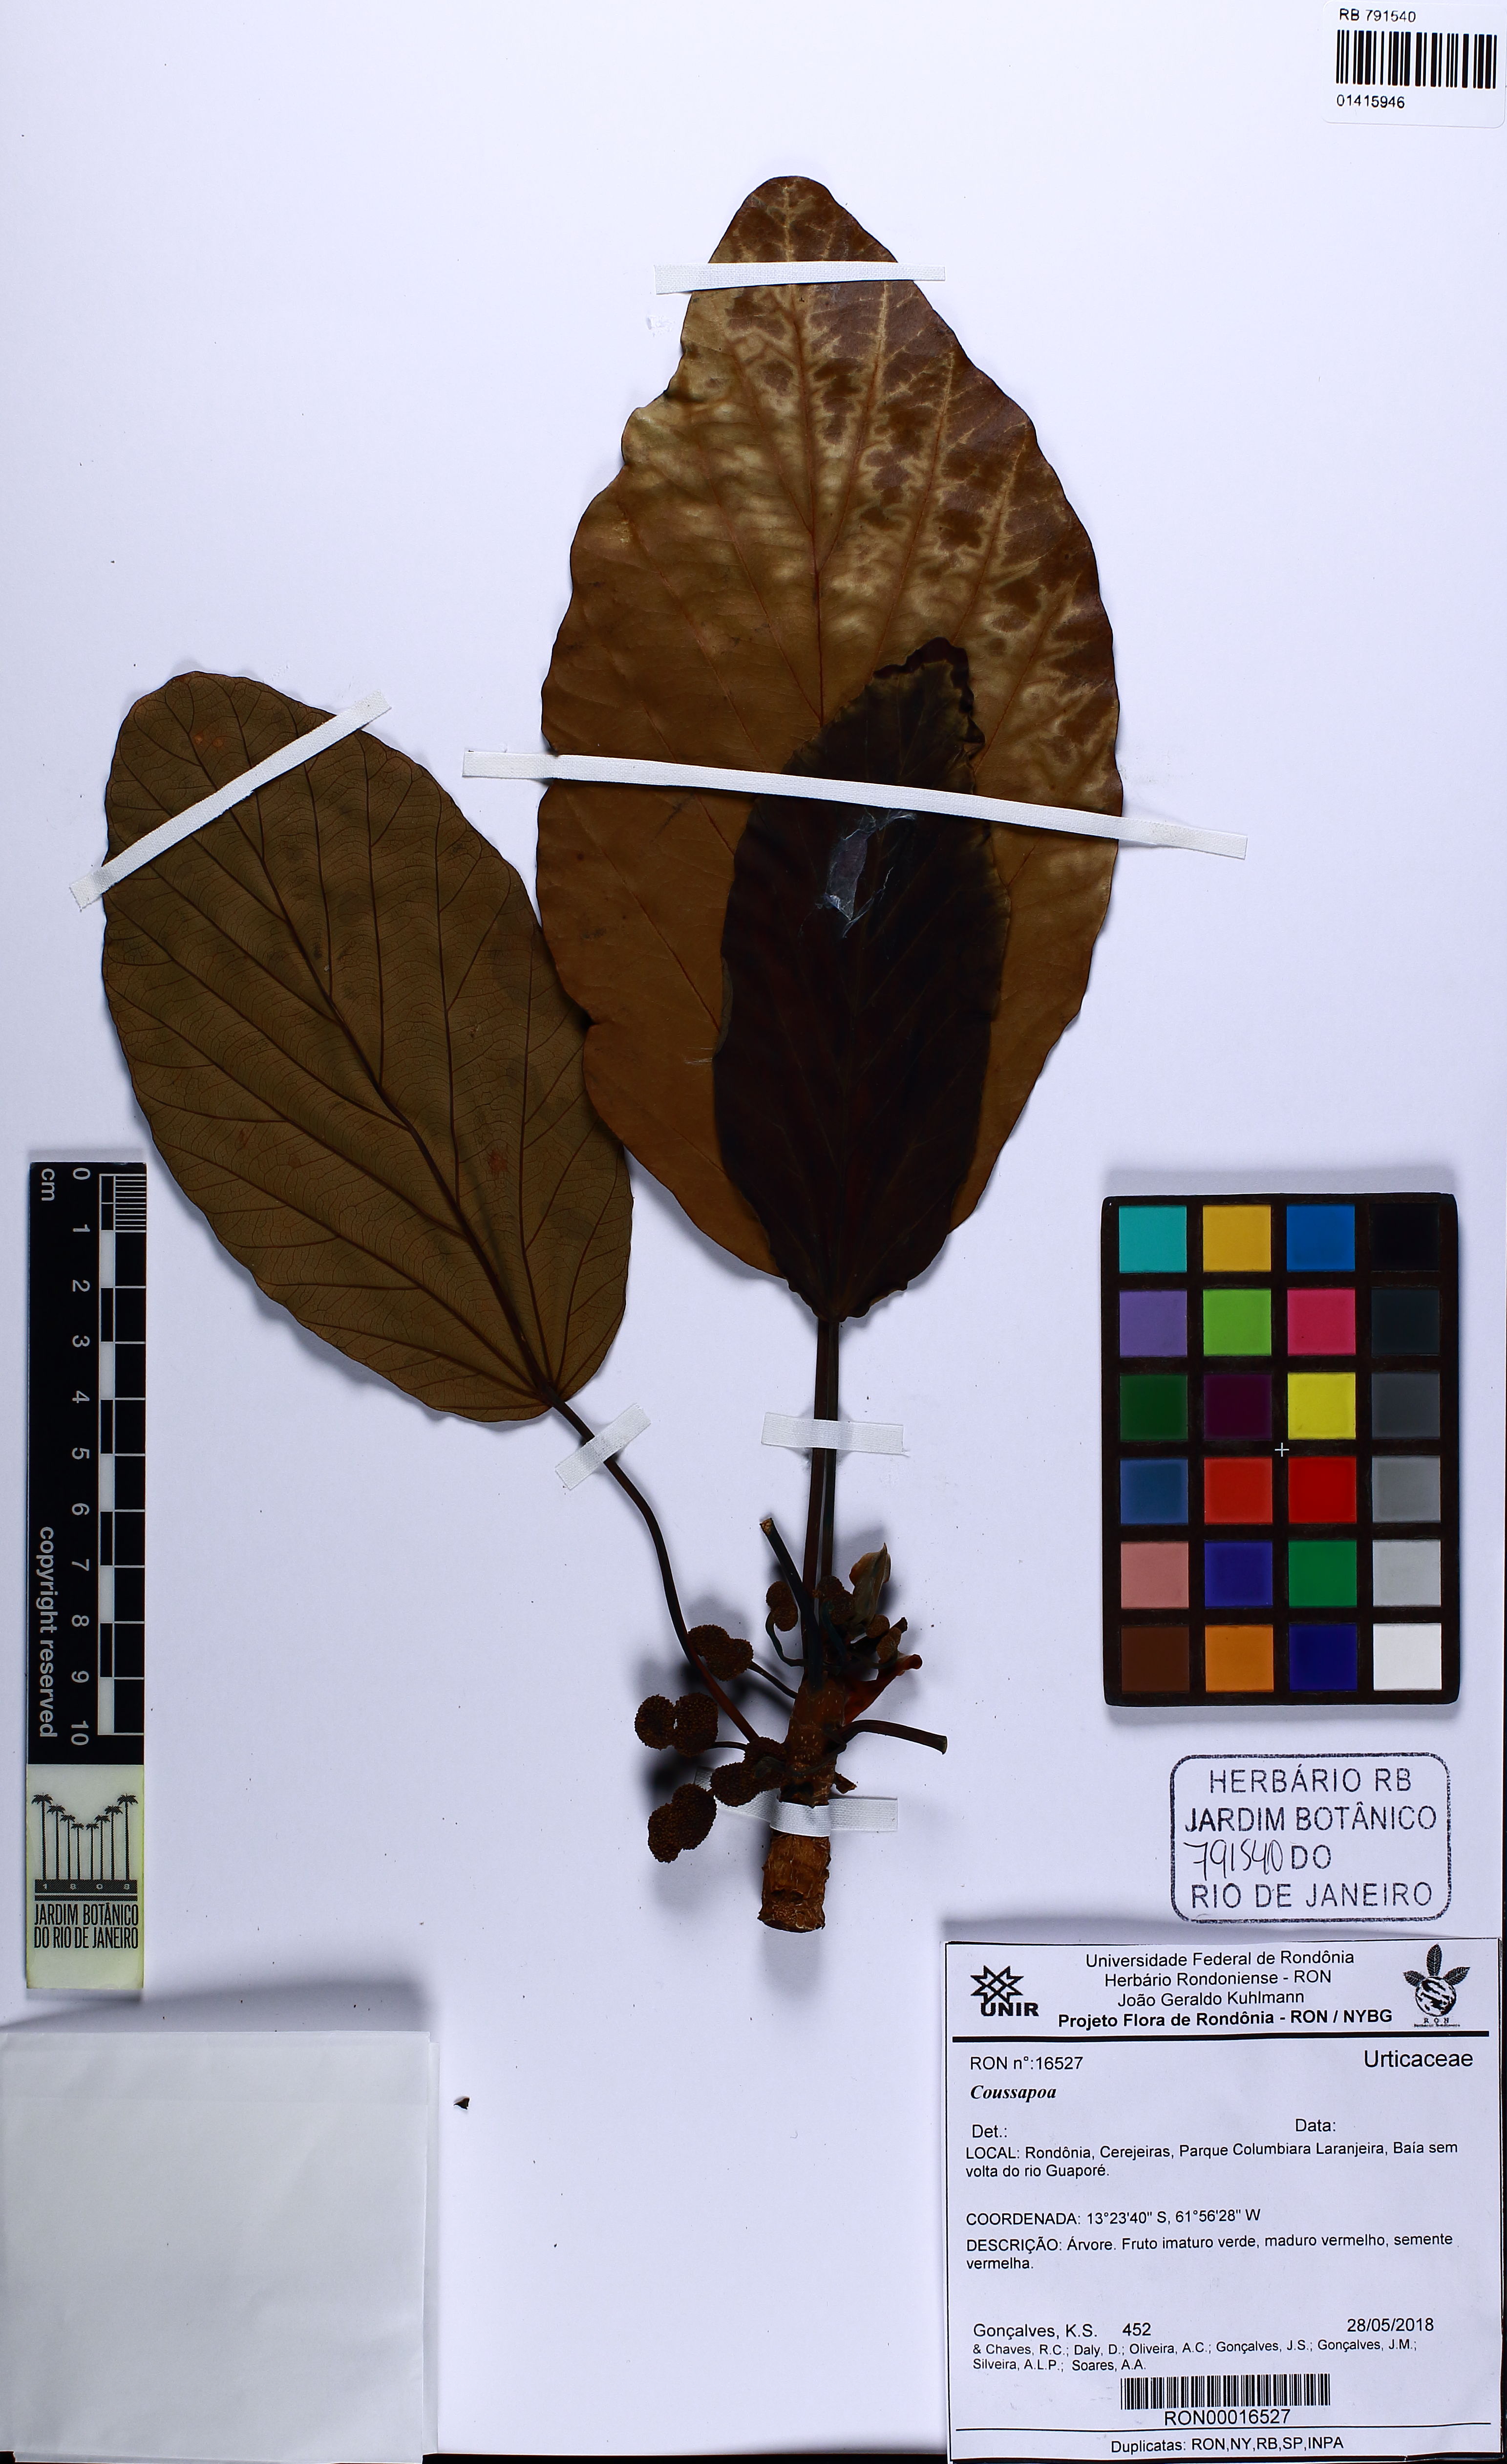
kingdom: Plantae
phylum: Tracheophyta
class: Magnoliopsida
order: Rosales
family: Urticaceae
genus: Coussapoa
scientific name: Coussapoa
